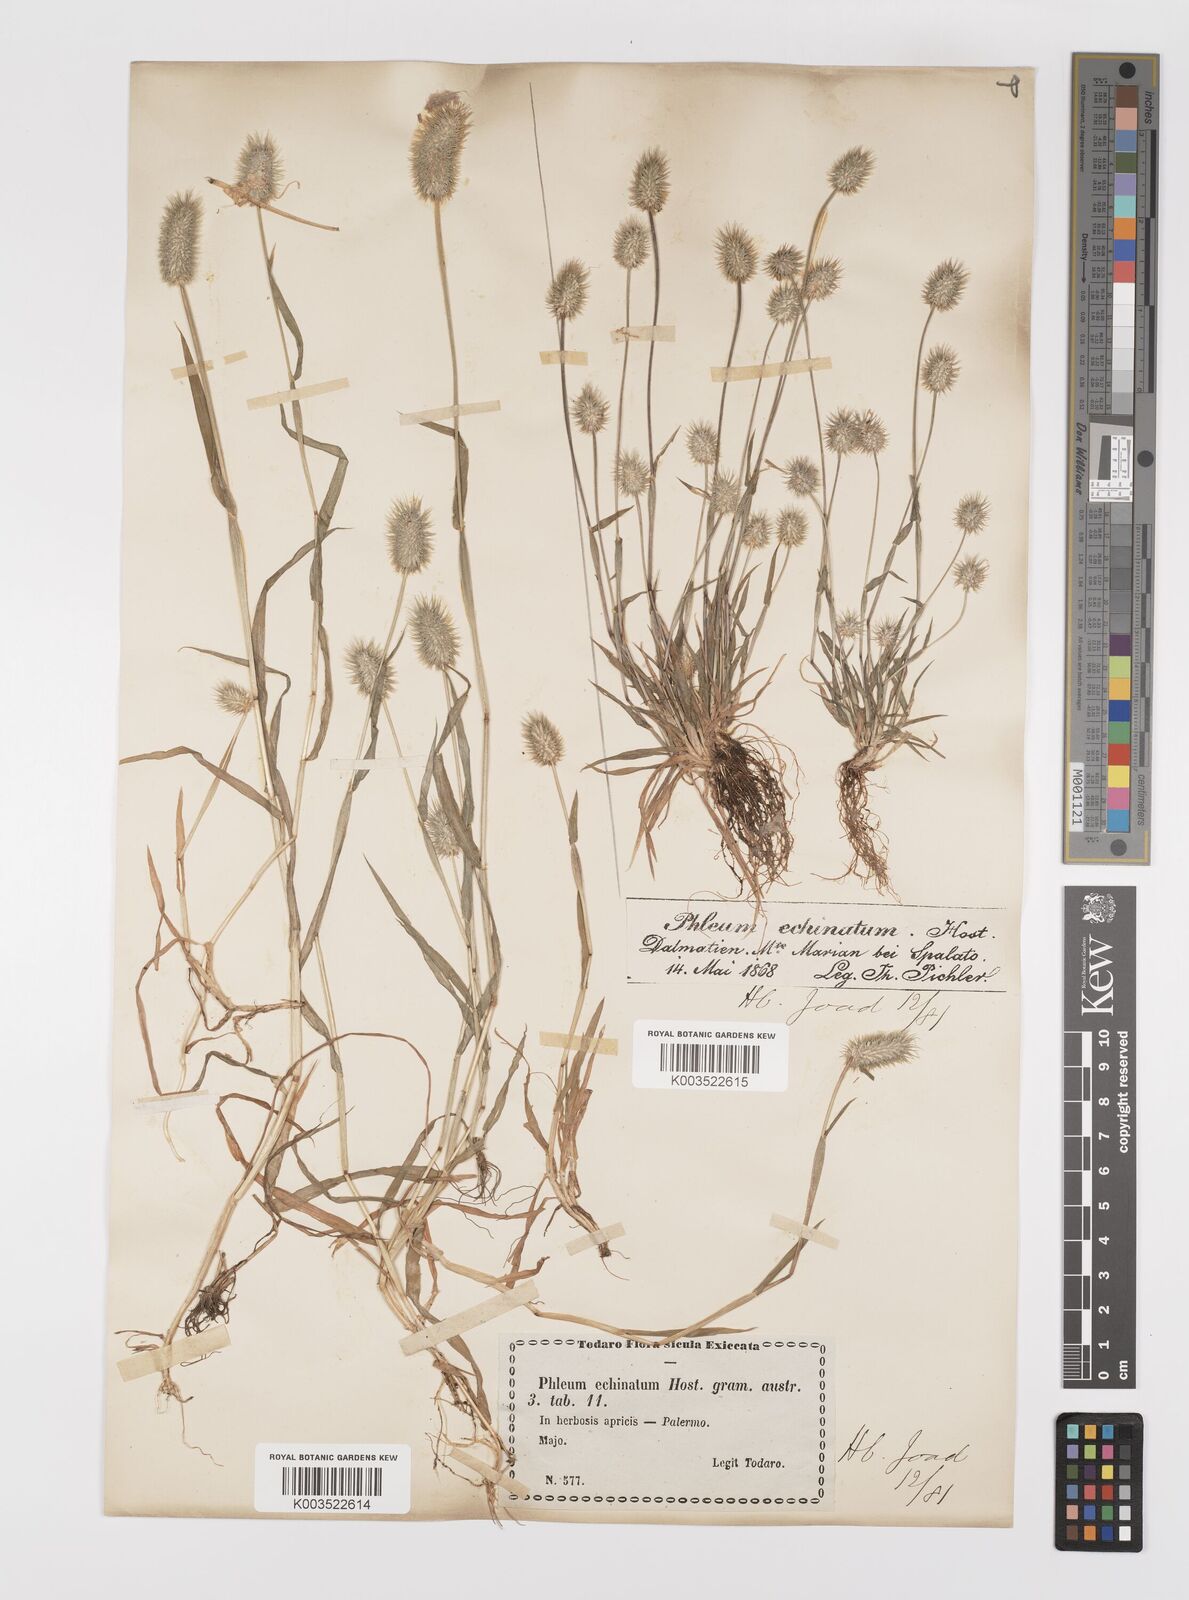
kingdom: Plantae
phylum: Tracheophyta
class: Liliopsida
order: Poales
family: Poaceae
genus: Phleum
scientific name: Phleum echinatum
